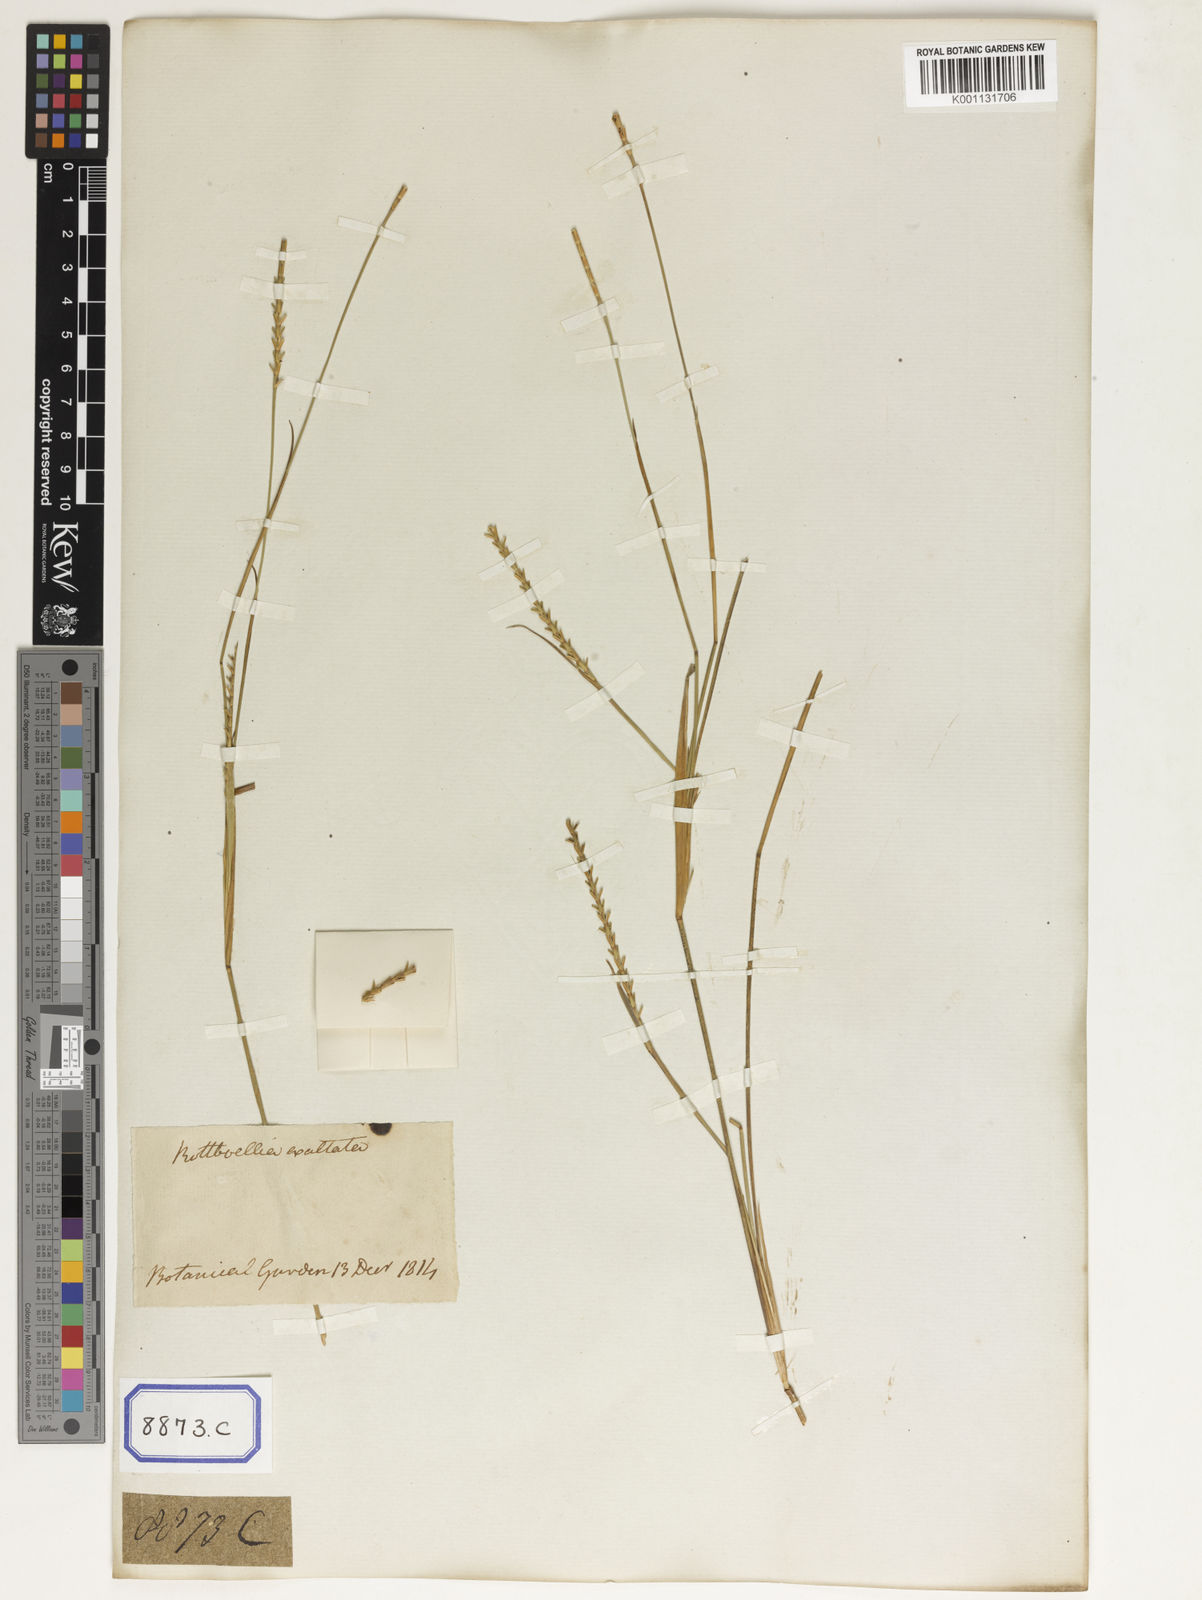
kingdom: Plantae
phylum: Tracheophyta
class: Liliopsida
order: Poales
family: Poaceae
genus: Mnesithea
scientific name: Mnesithea laevis
